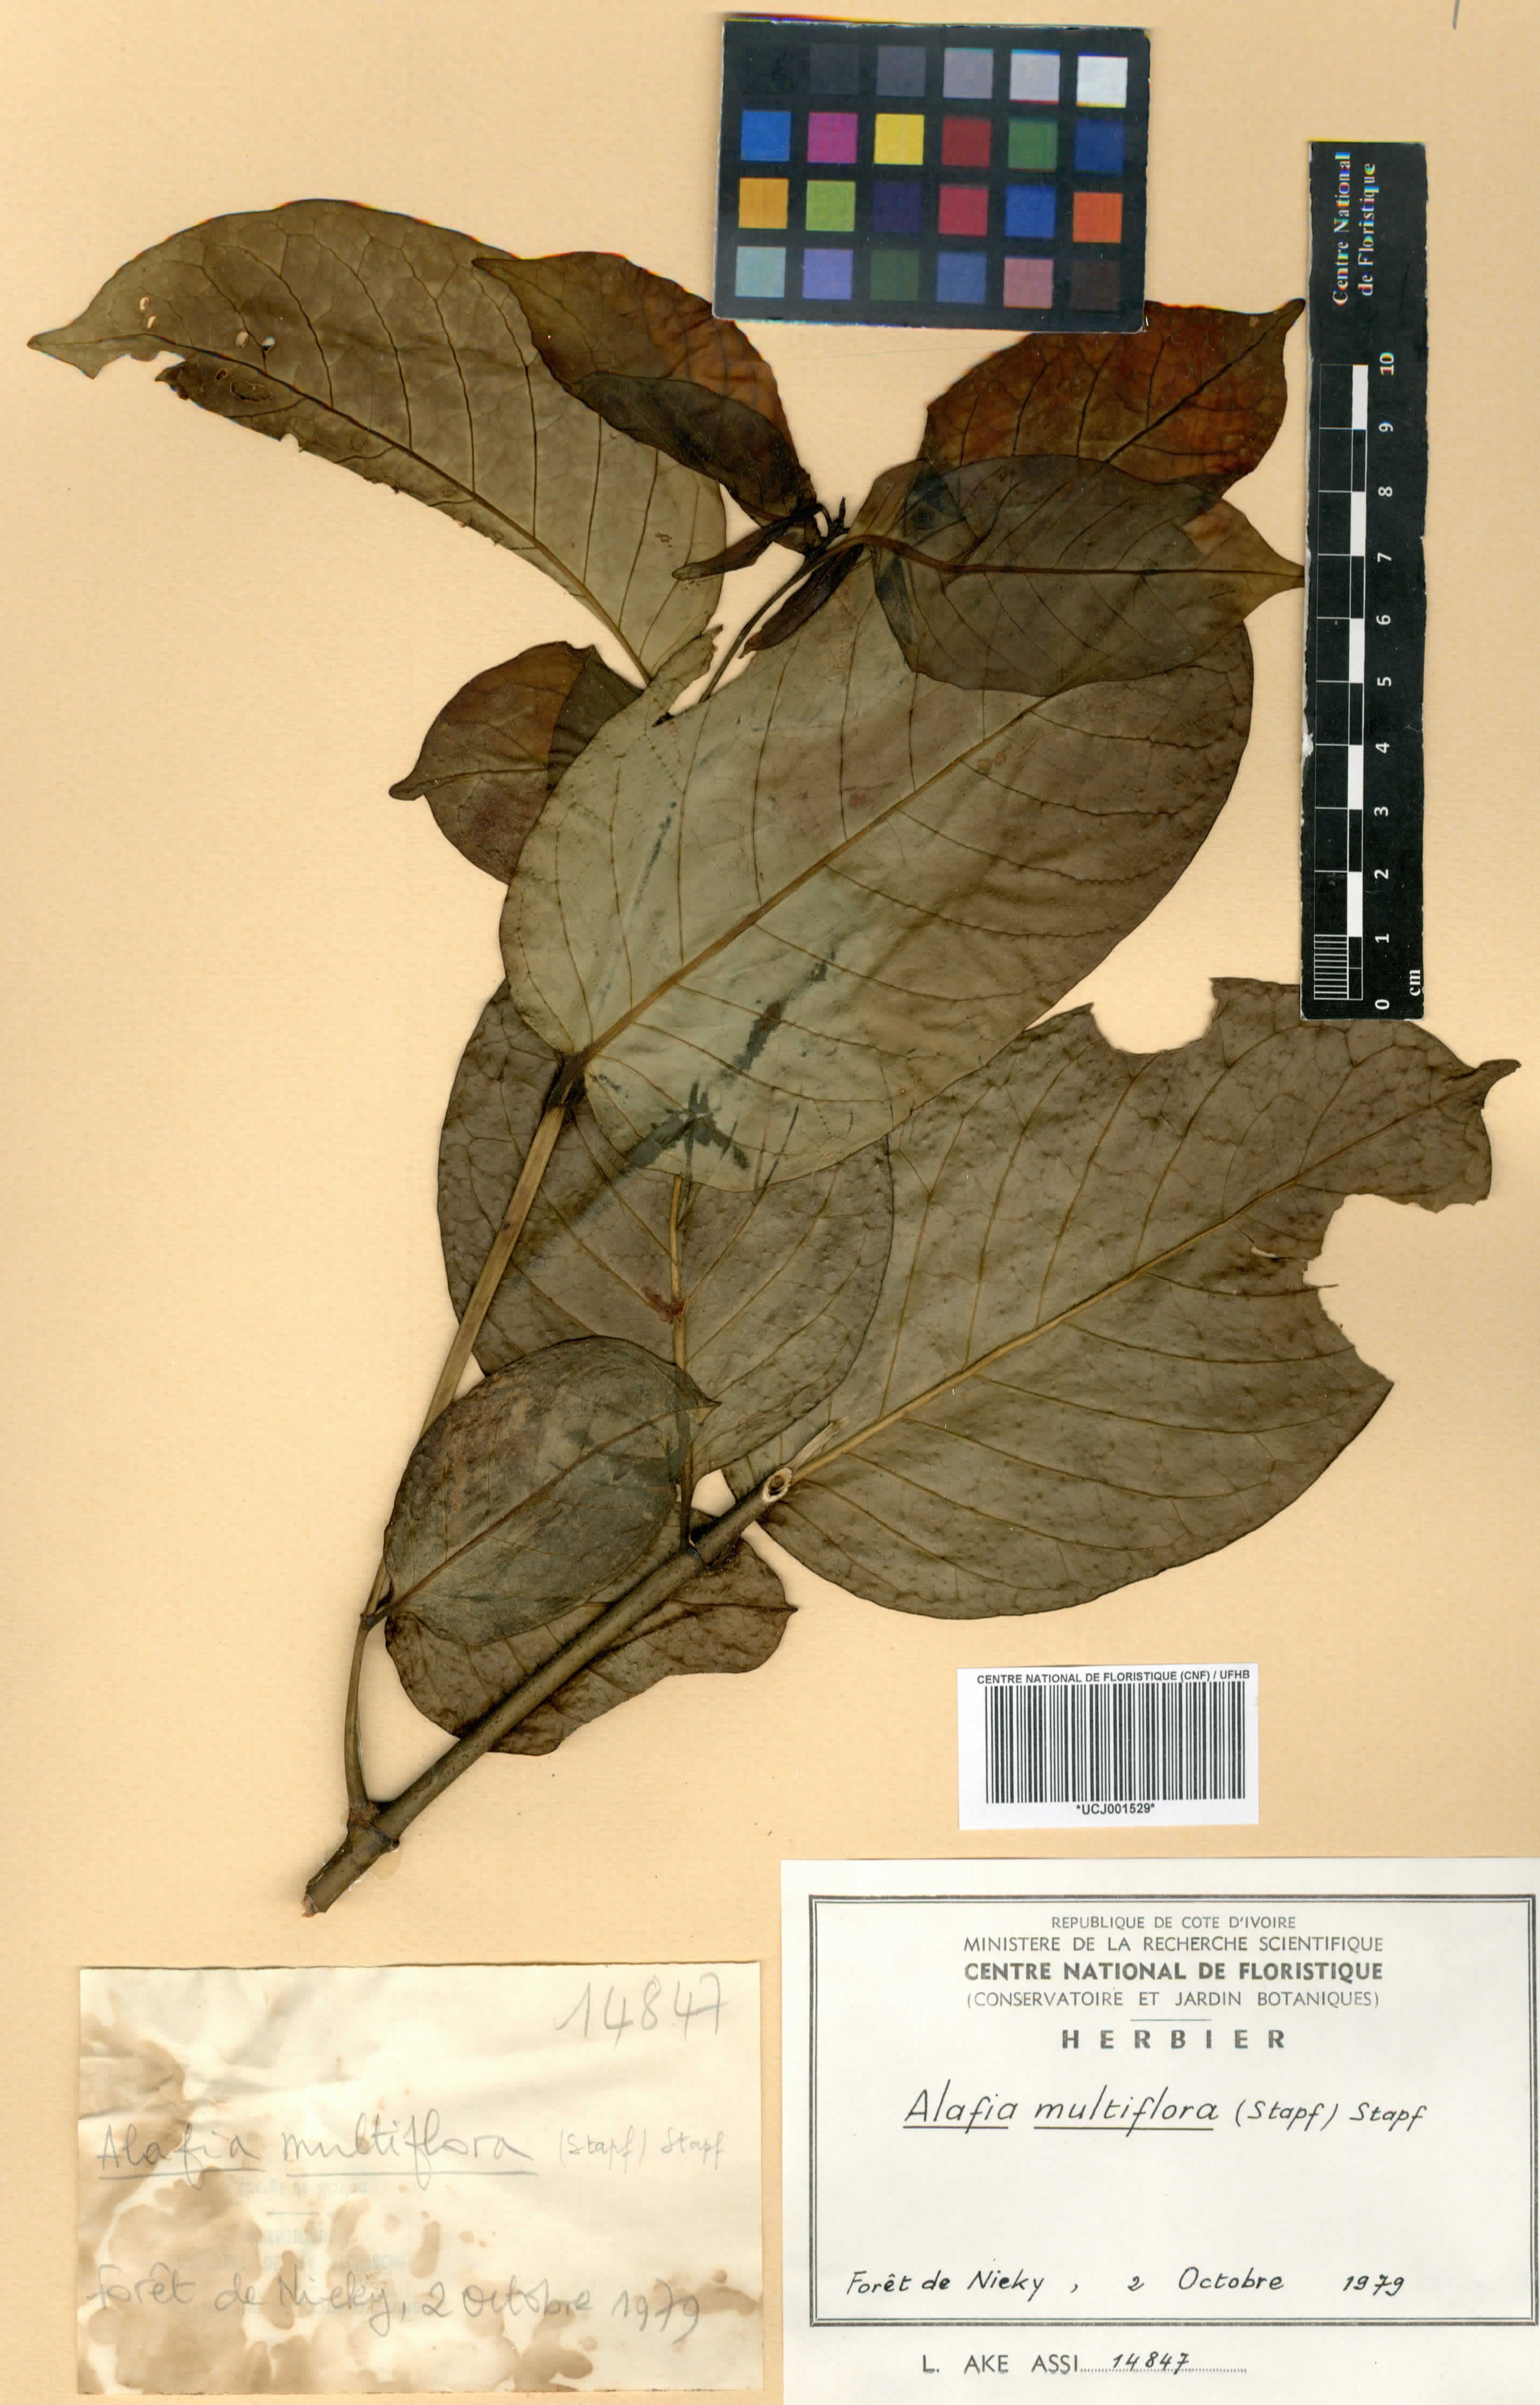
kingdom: Plantae
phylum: Tracheophyta
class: Magnoliopsida
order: Gentianales
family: Apocynaceae
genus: Alafia
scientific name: Alafia multiflora
